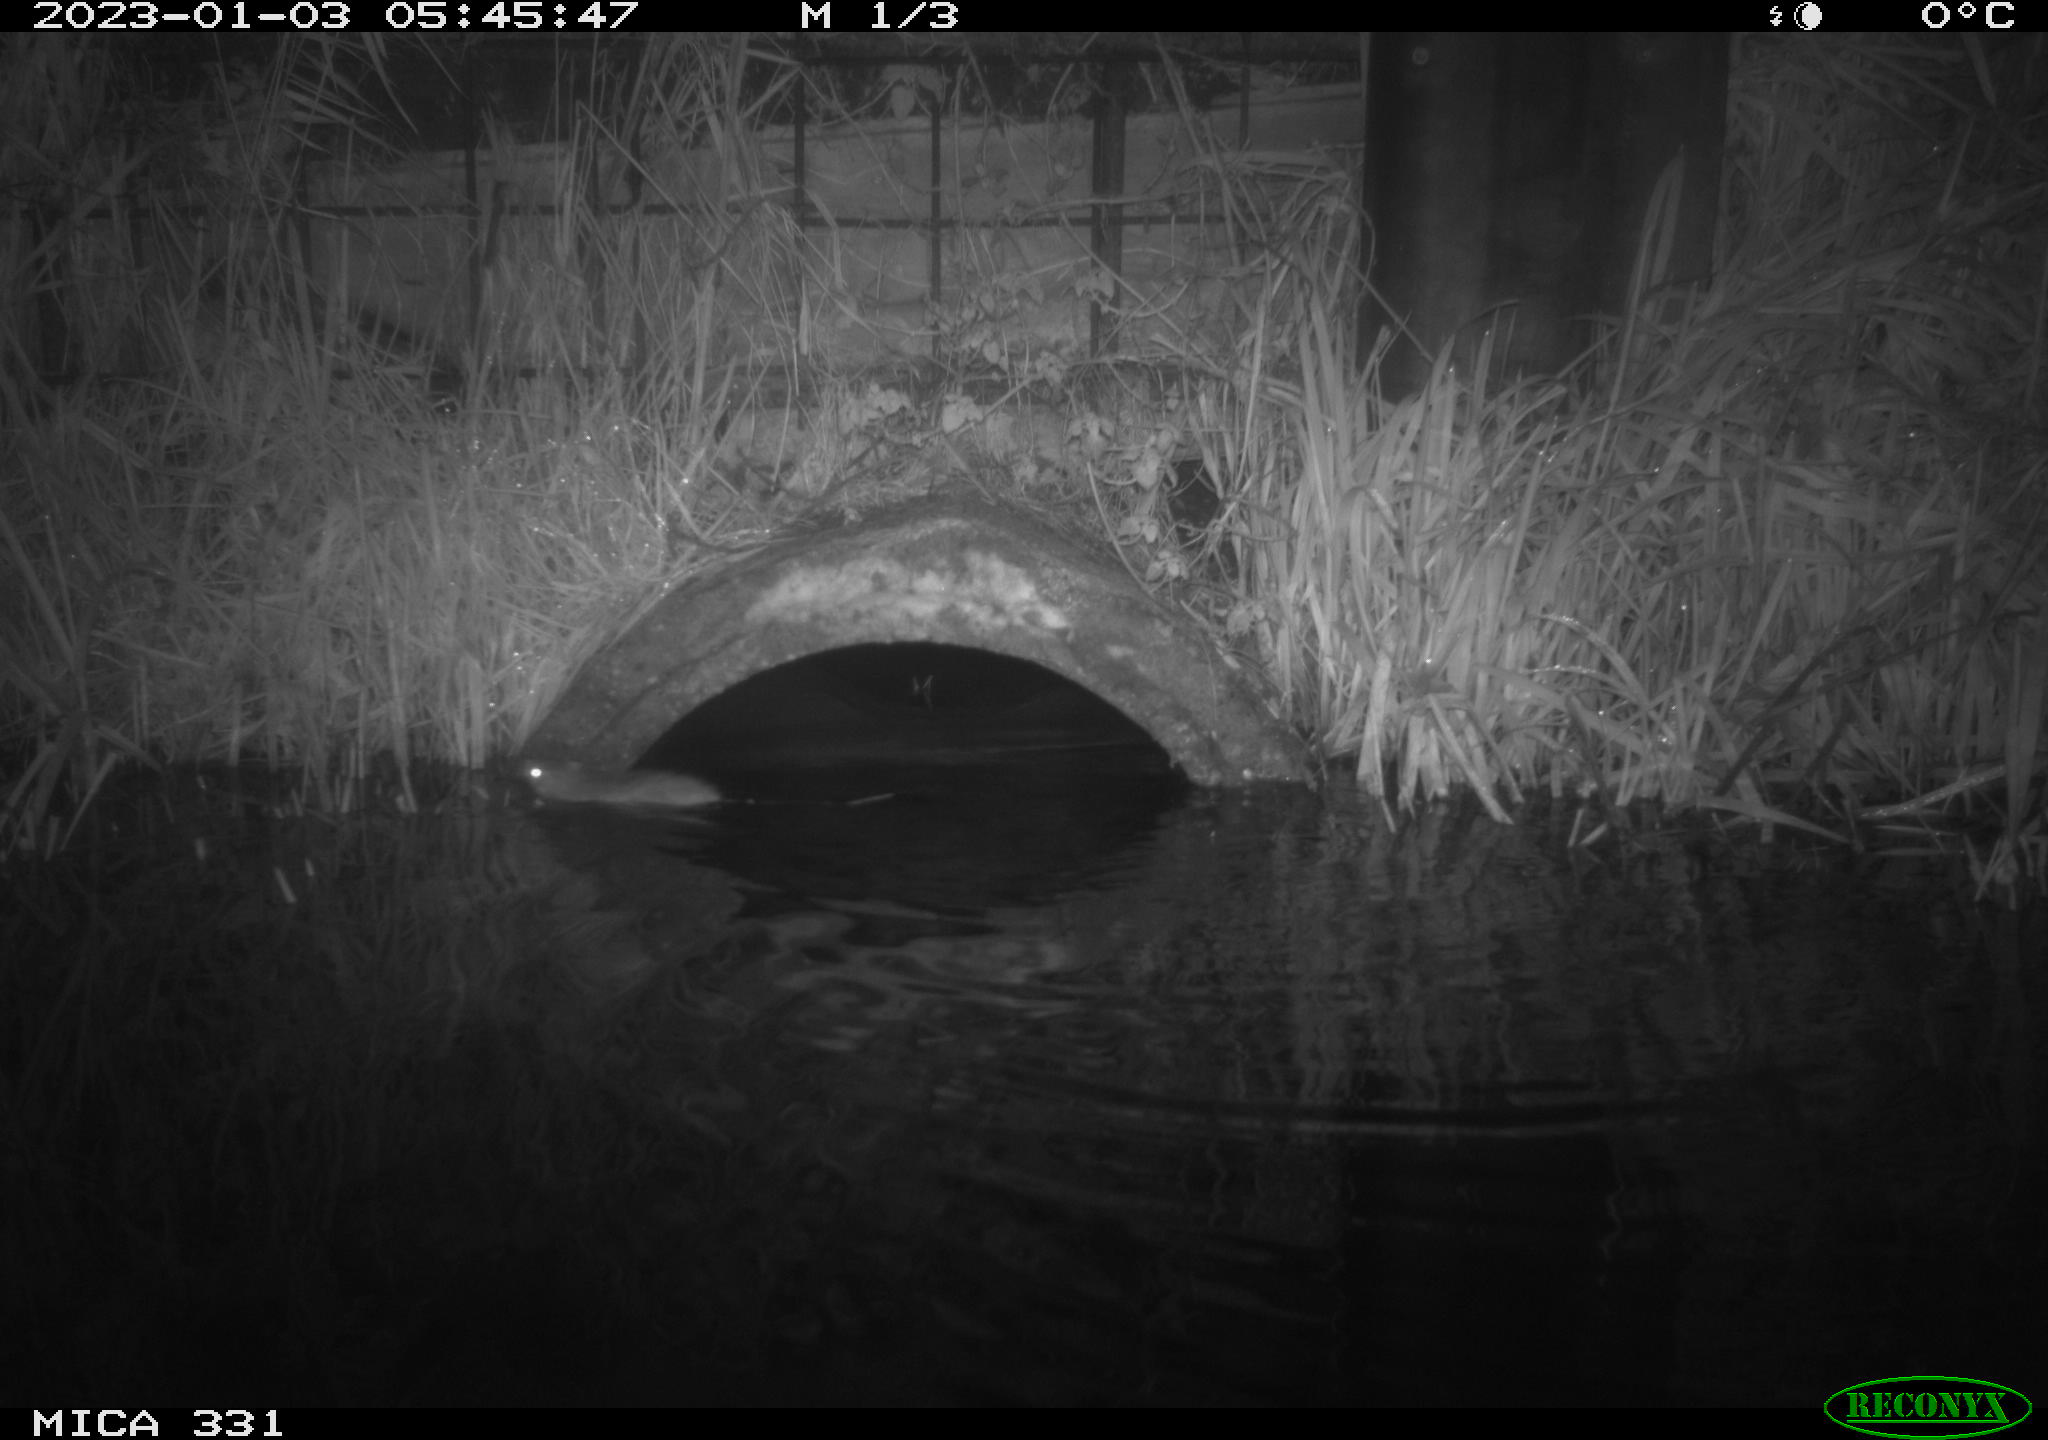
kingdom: Animalia
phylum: Chordata
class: Mammalia
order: Rodentia
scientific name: Rodentia
